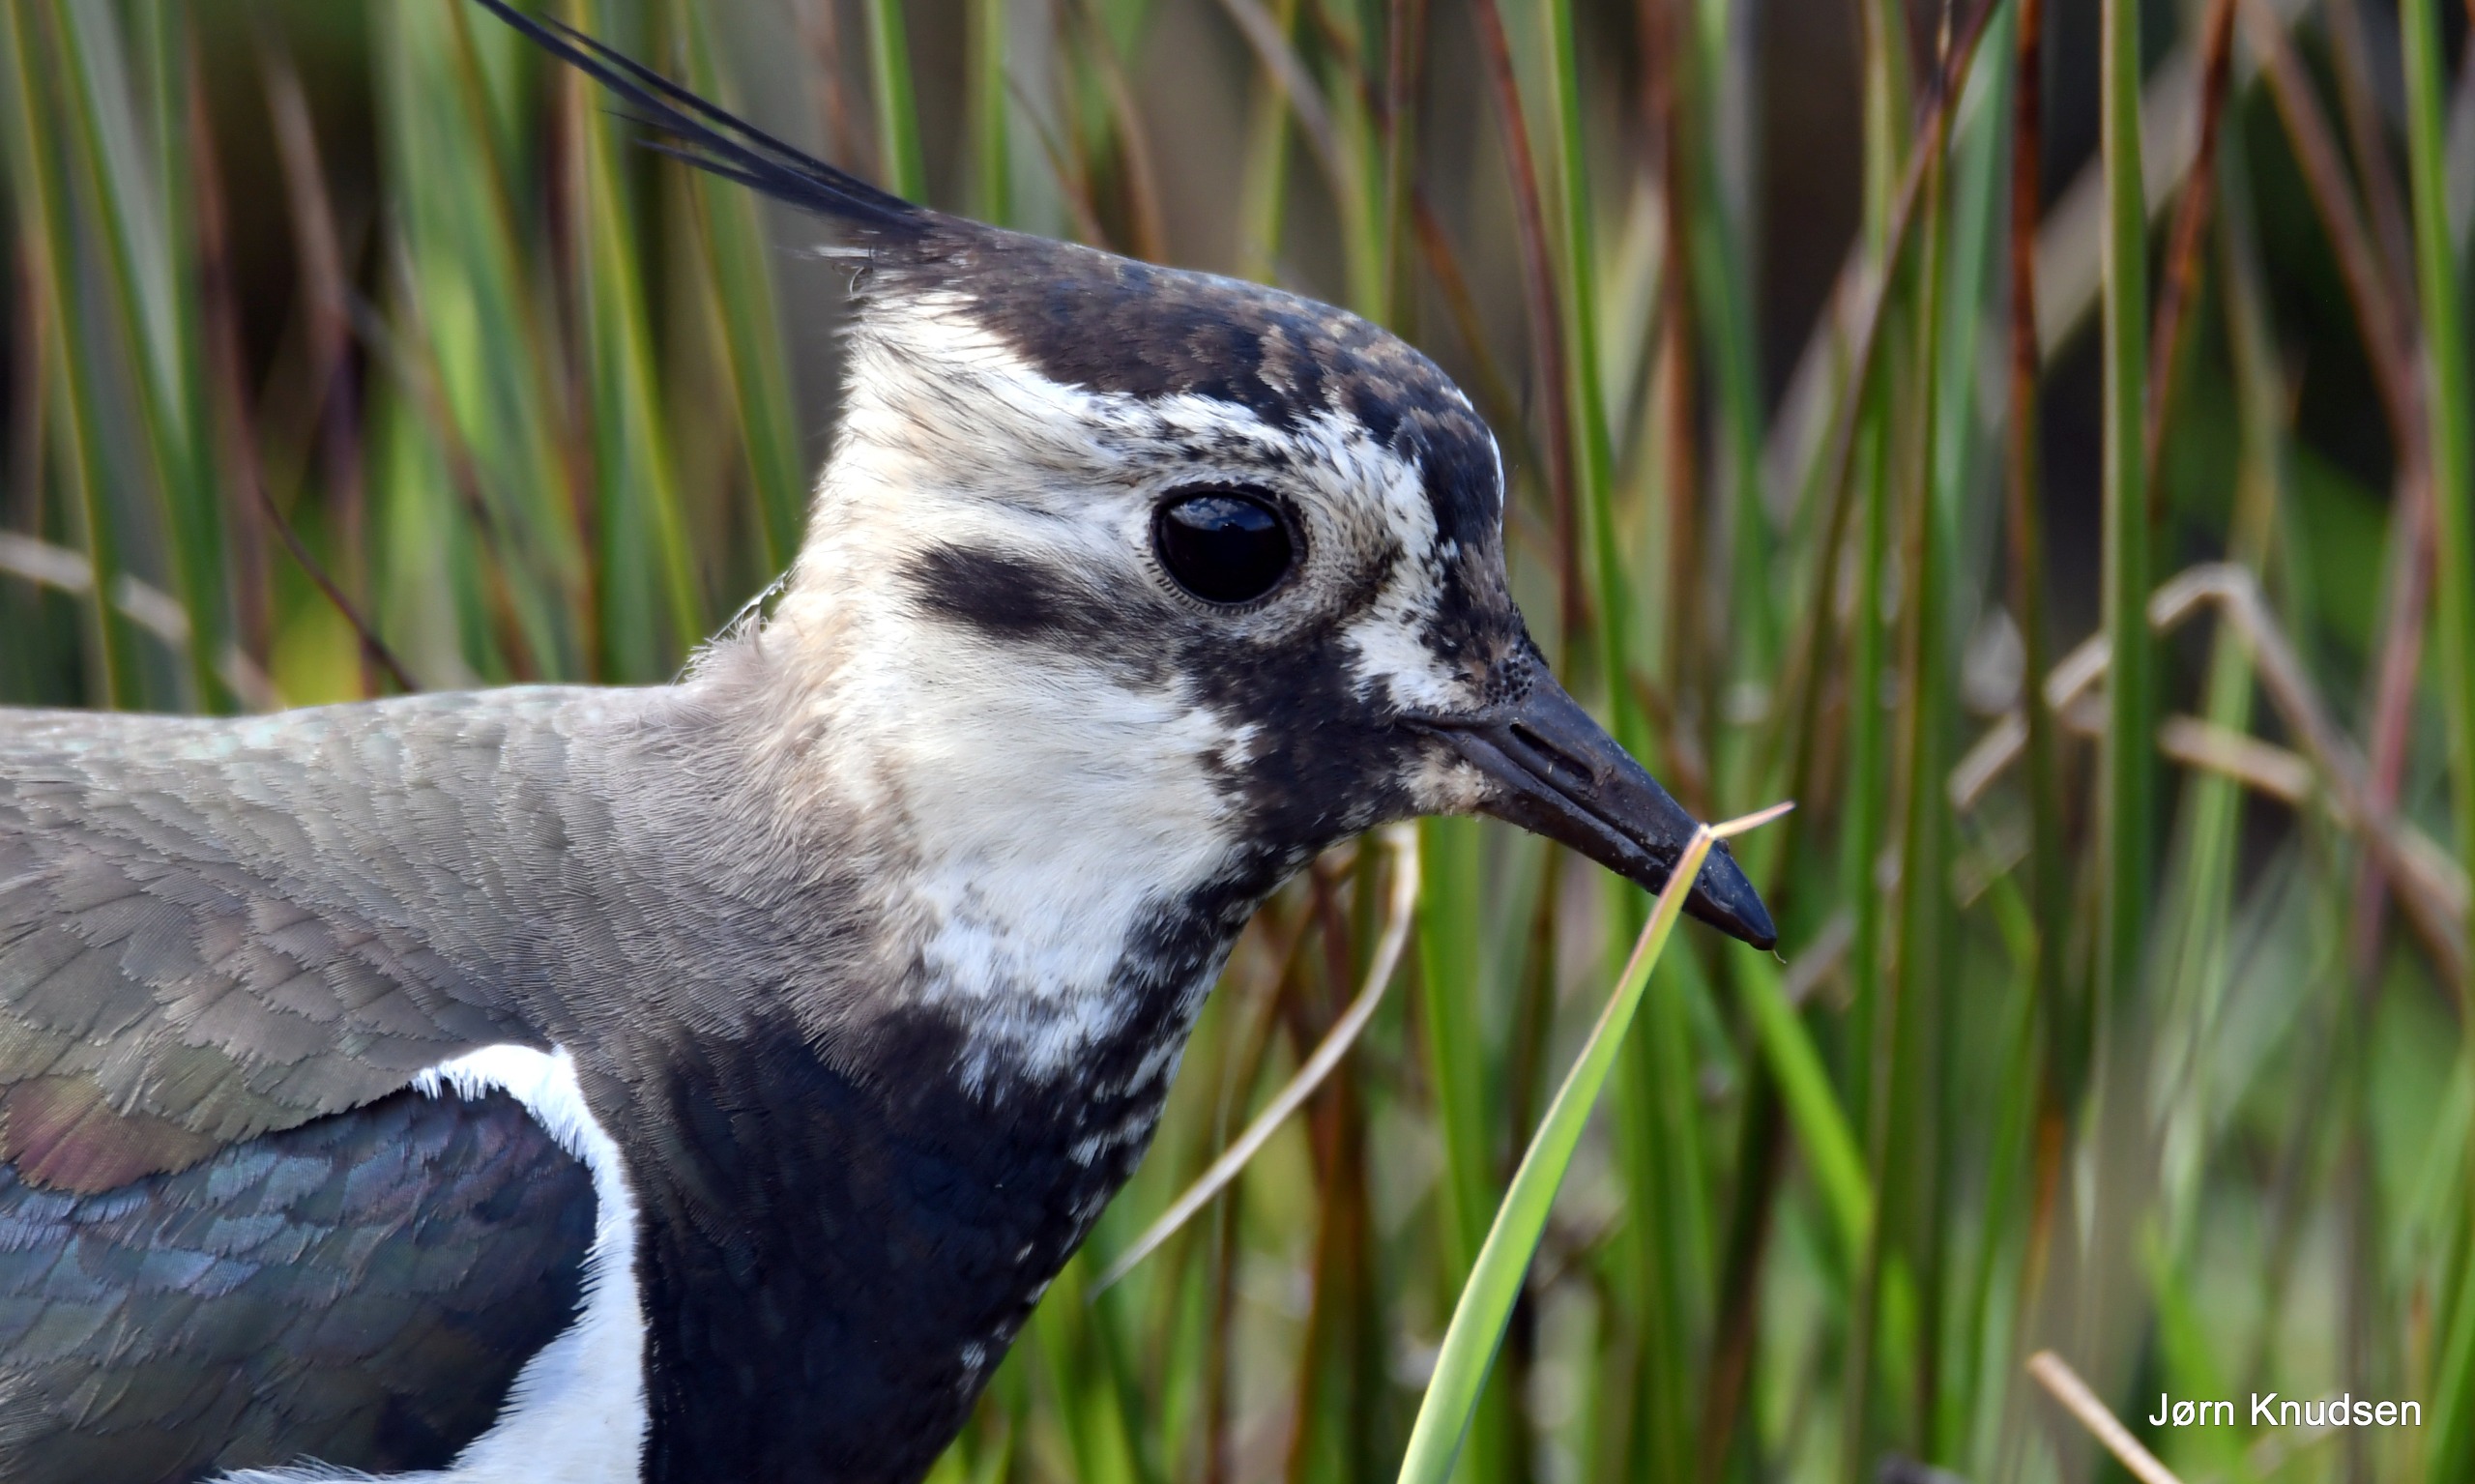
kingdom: Animalia
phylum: Chordata
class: Aves
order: Charadriiformes
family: Charadriidae
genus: Vanellus
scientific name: Vanellus vanellus
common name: Vibe
